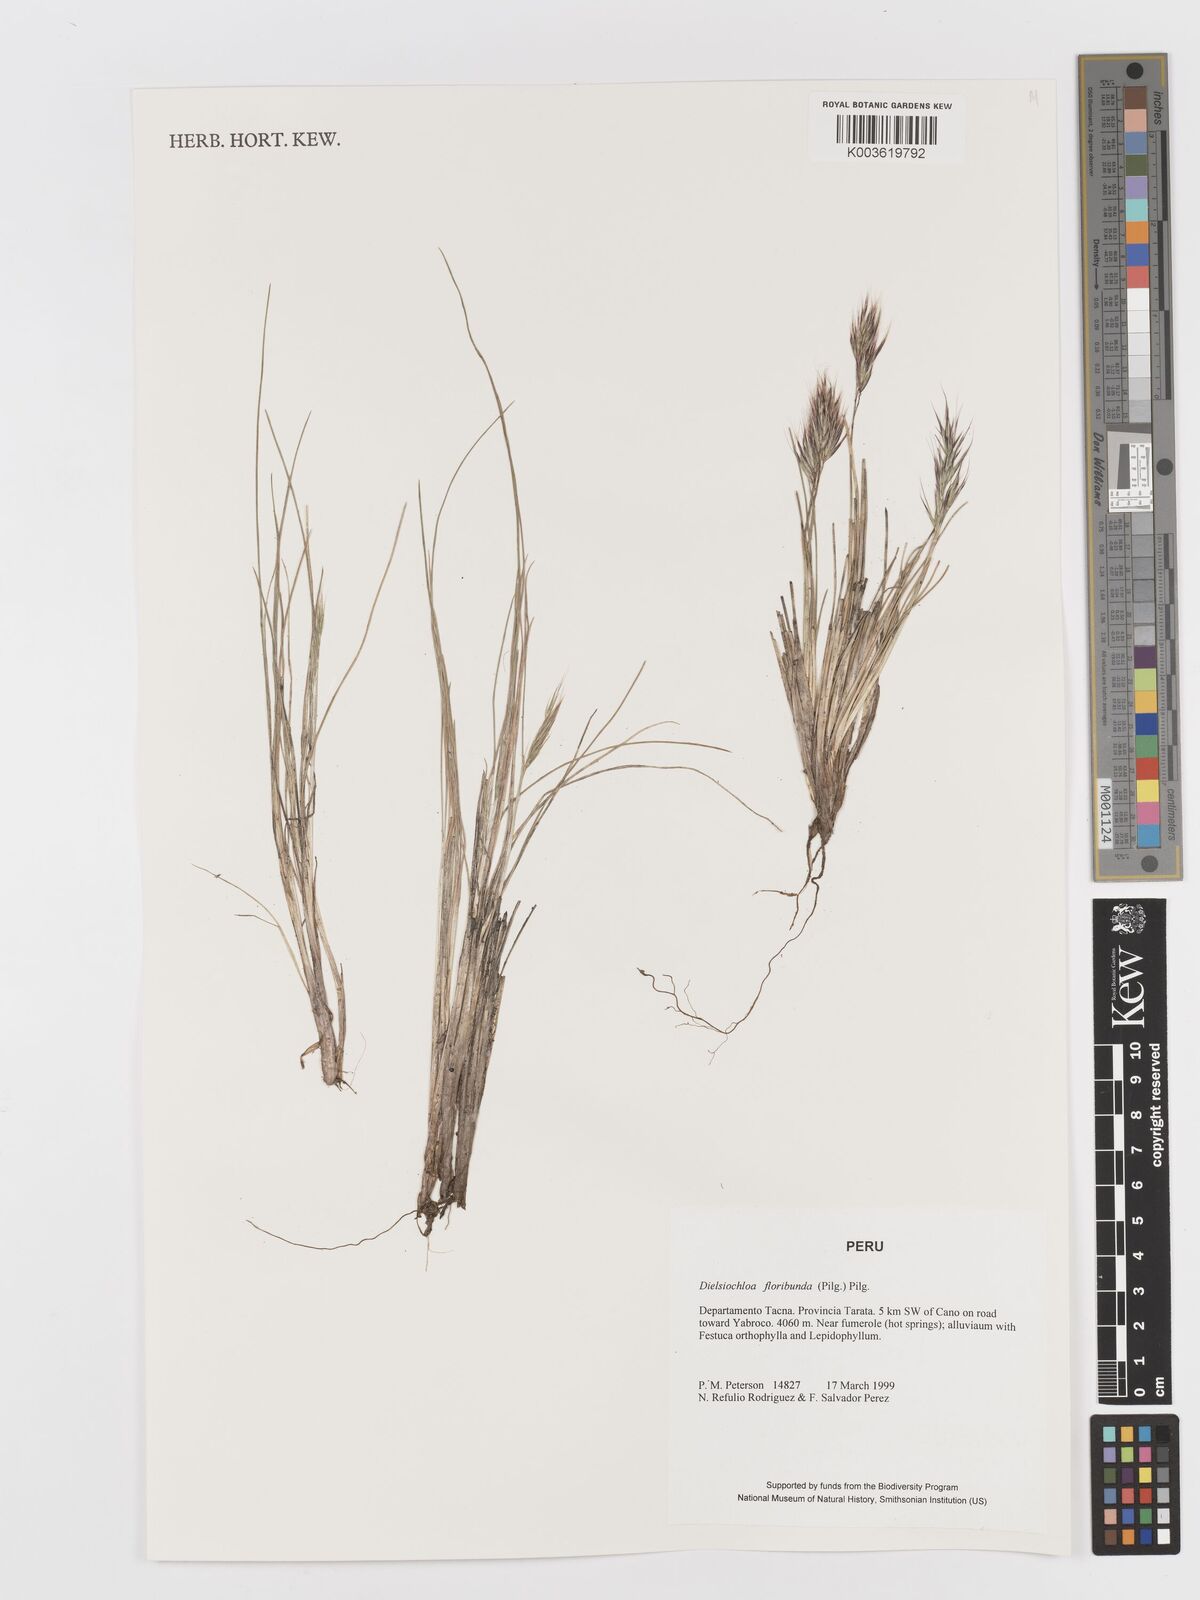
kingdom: Plantae
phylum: Tracheophyta
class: Liliopsida
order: Poales
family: Poaceae
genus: Festuca
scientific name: Festuca floribunda
